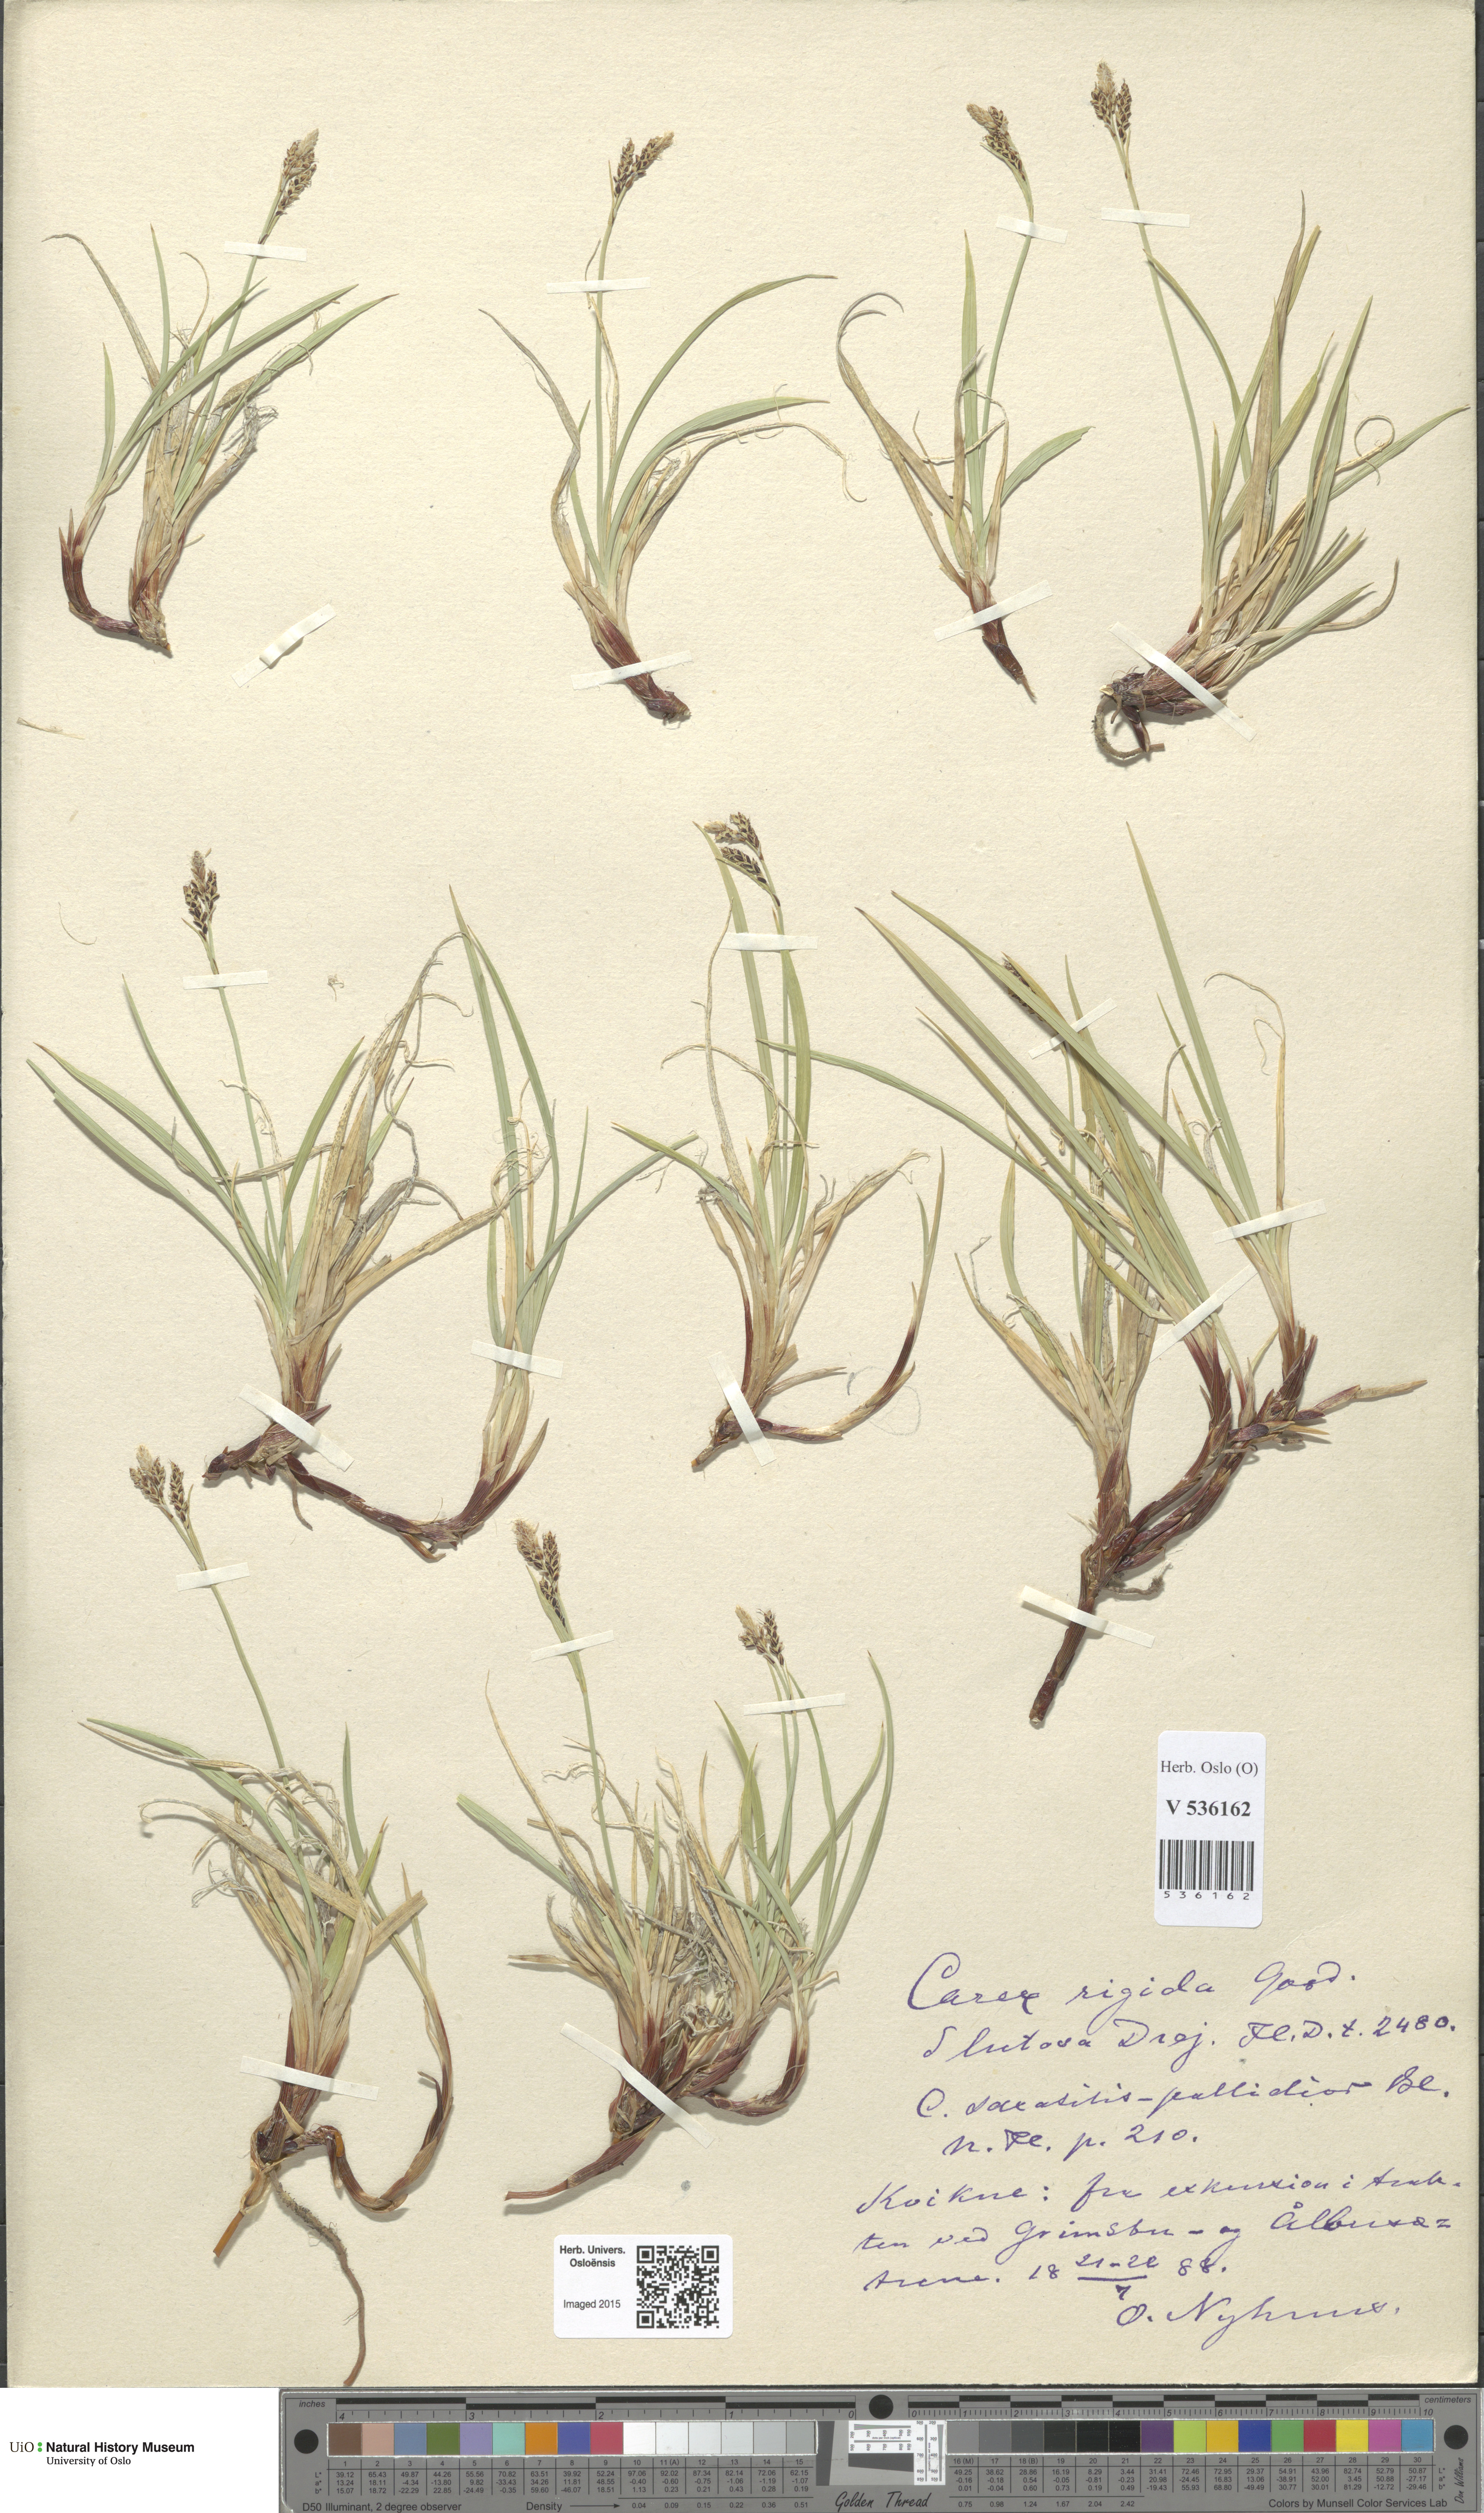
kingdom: Plantae
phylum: Tracheophyta
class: Liliopsida
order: Poales
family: Cyperaceae
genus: Carex
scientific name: Carex dacica
